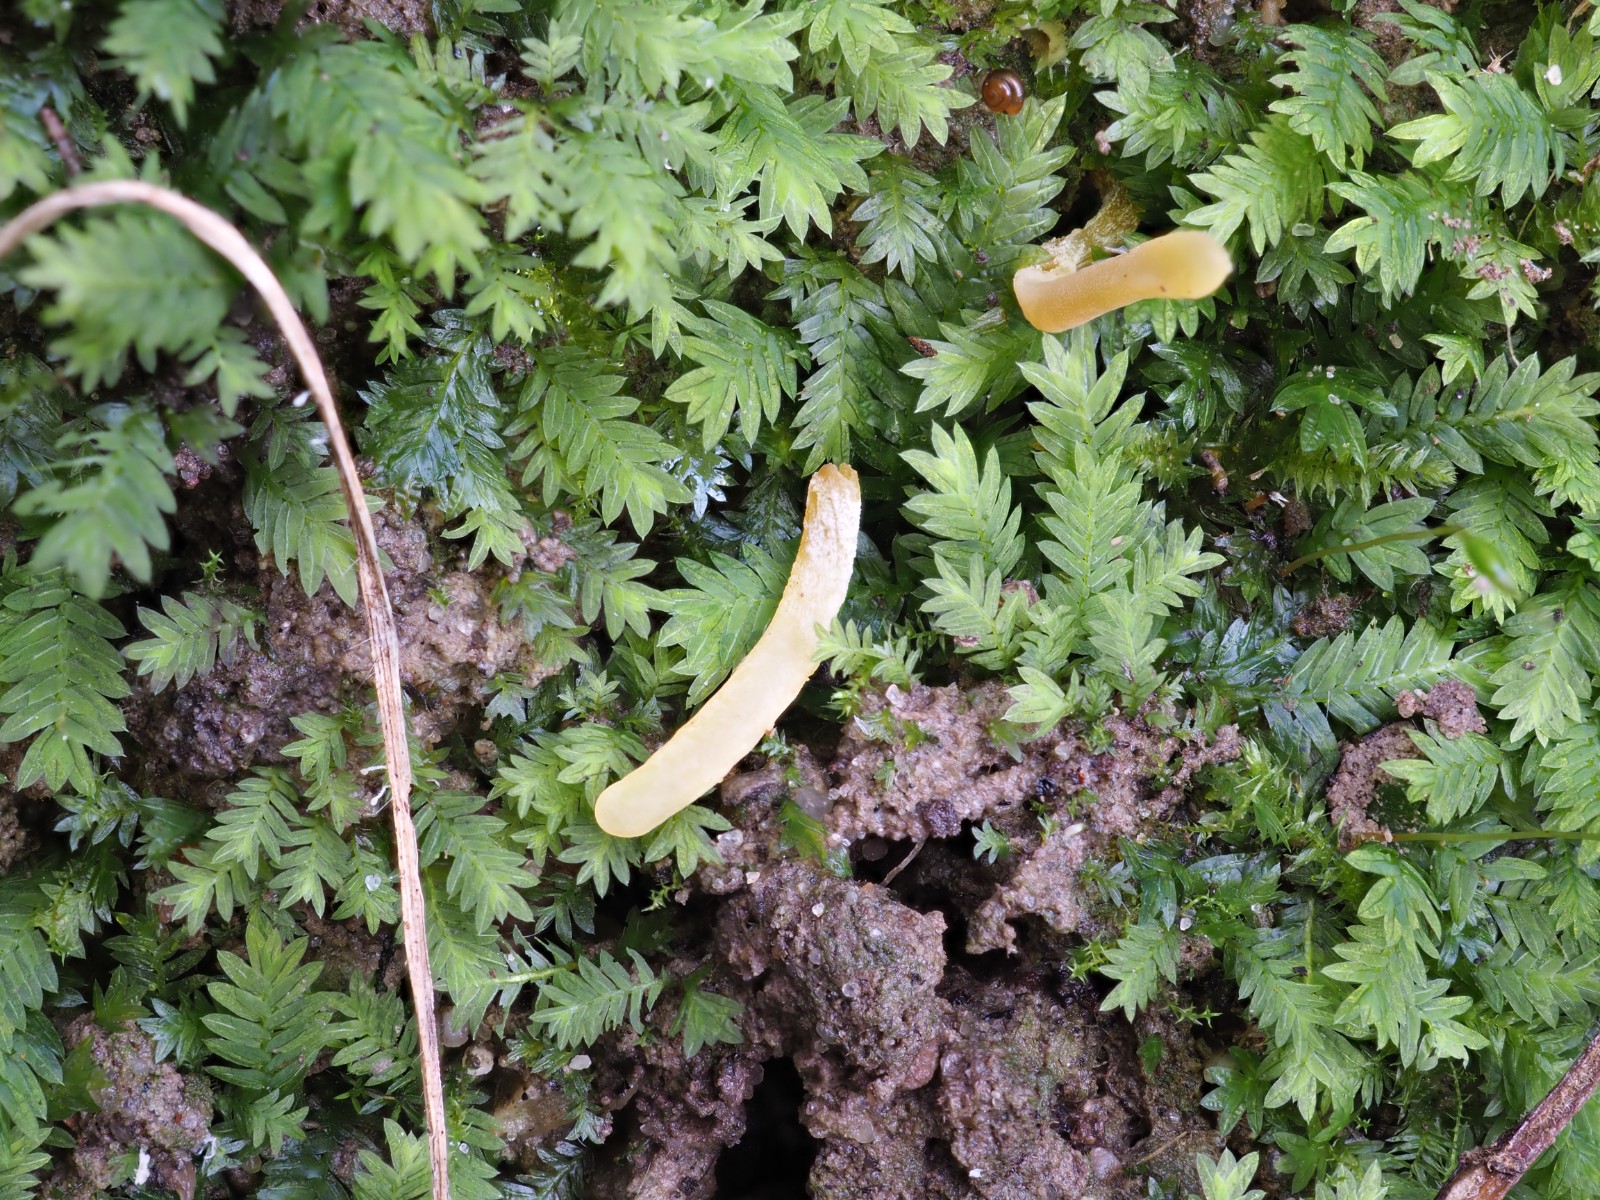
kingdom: Fungi
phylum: Basidiomycota
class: Agaricomycetes
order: Agaricales
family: Clavariaceae
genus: Clavaria
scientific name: Clavaria
